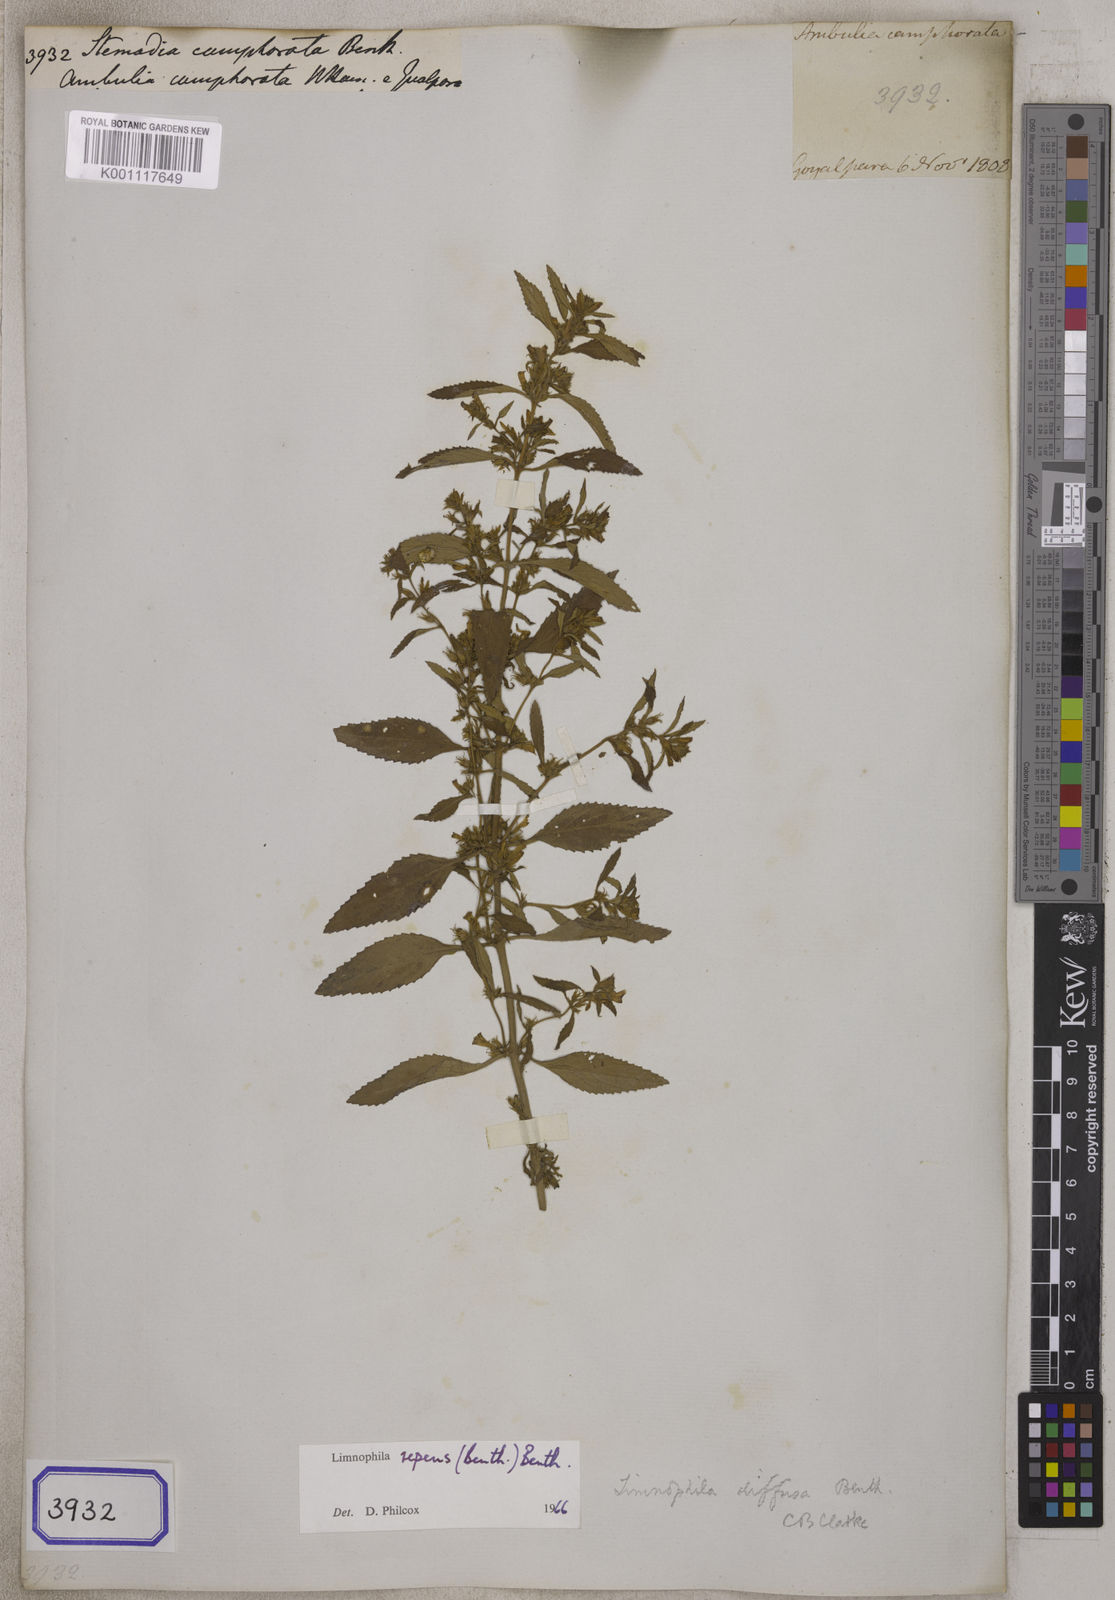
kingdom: Plantae
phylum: Tracheophyta
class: Magnoliopsida
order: Lamiales
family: Plantaginaceae
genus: Limnophila
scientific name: Limnophila repens
